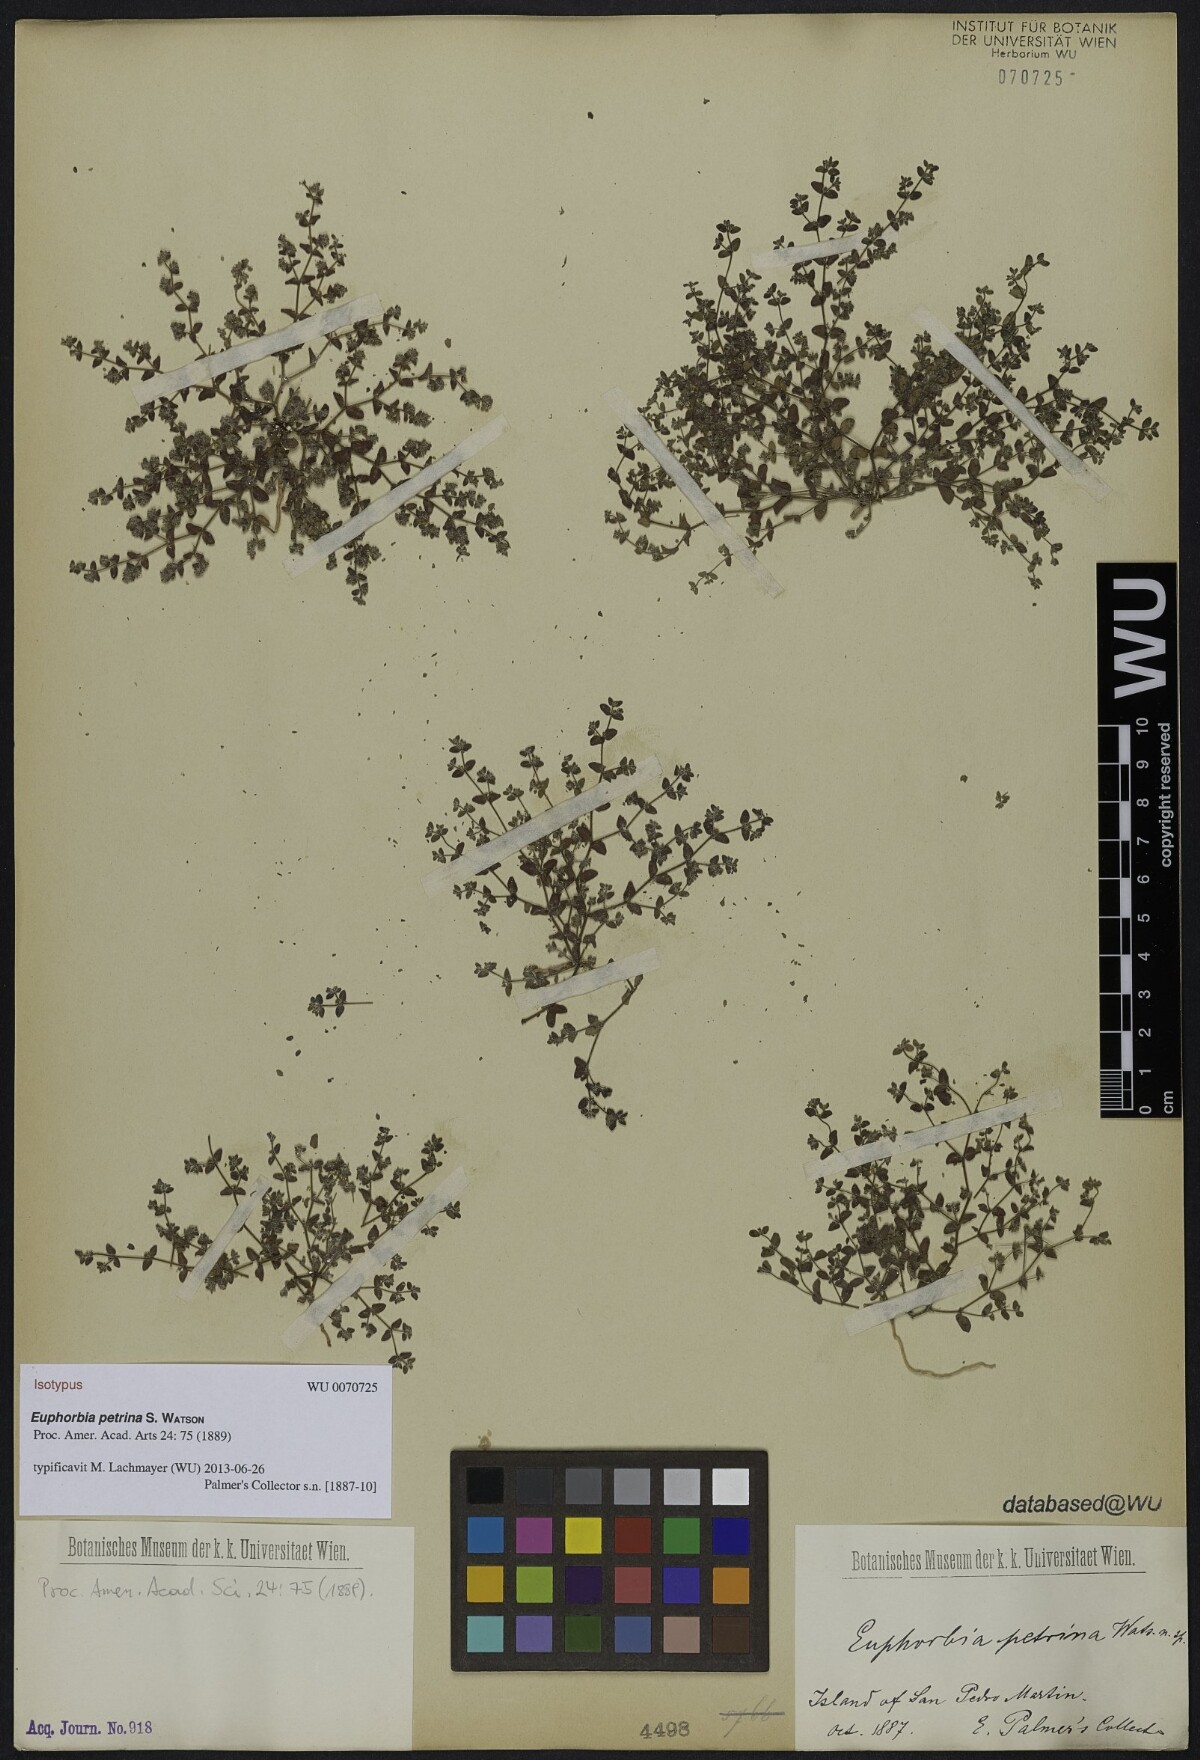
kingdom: Plantae
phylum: Tracheophyta
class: Magnoliopsida
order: Malpighiales
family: Euphorbiaceae
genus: Euphorbia
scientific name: Euphorbia petrina
